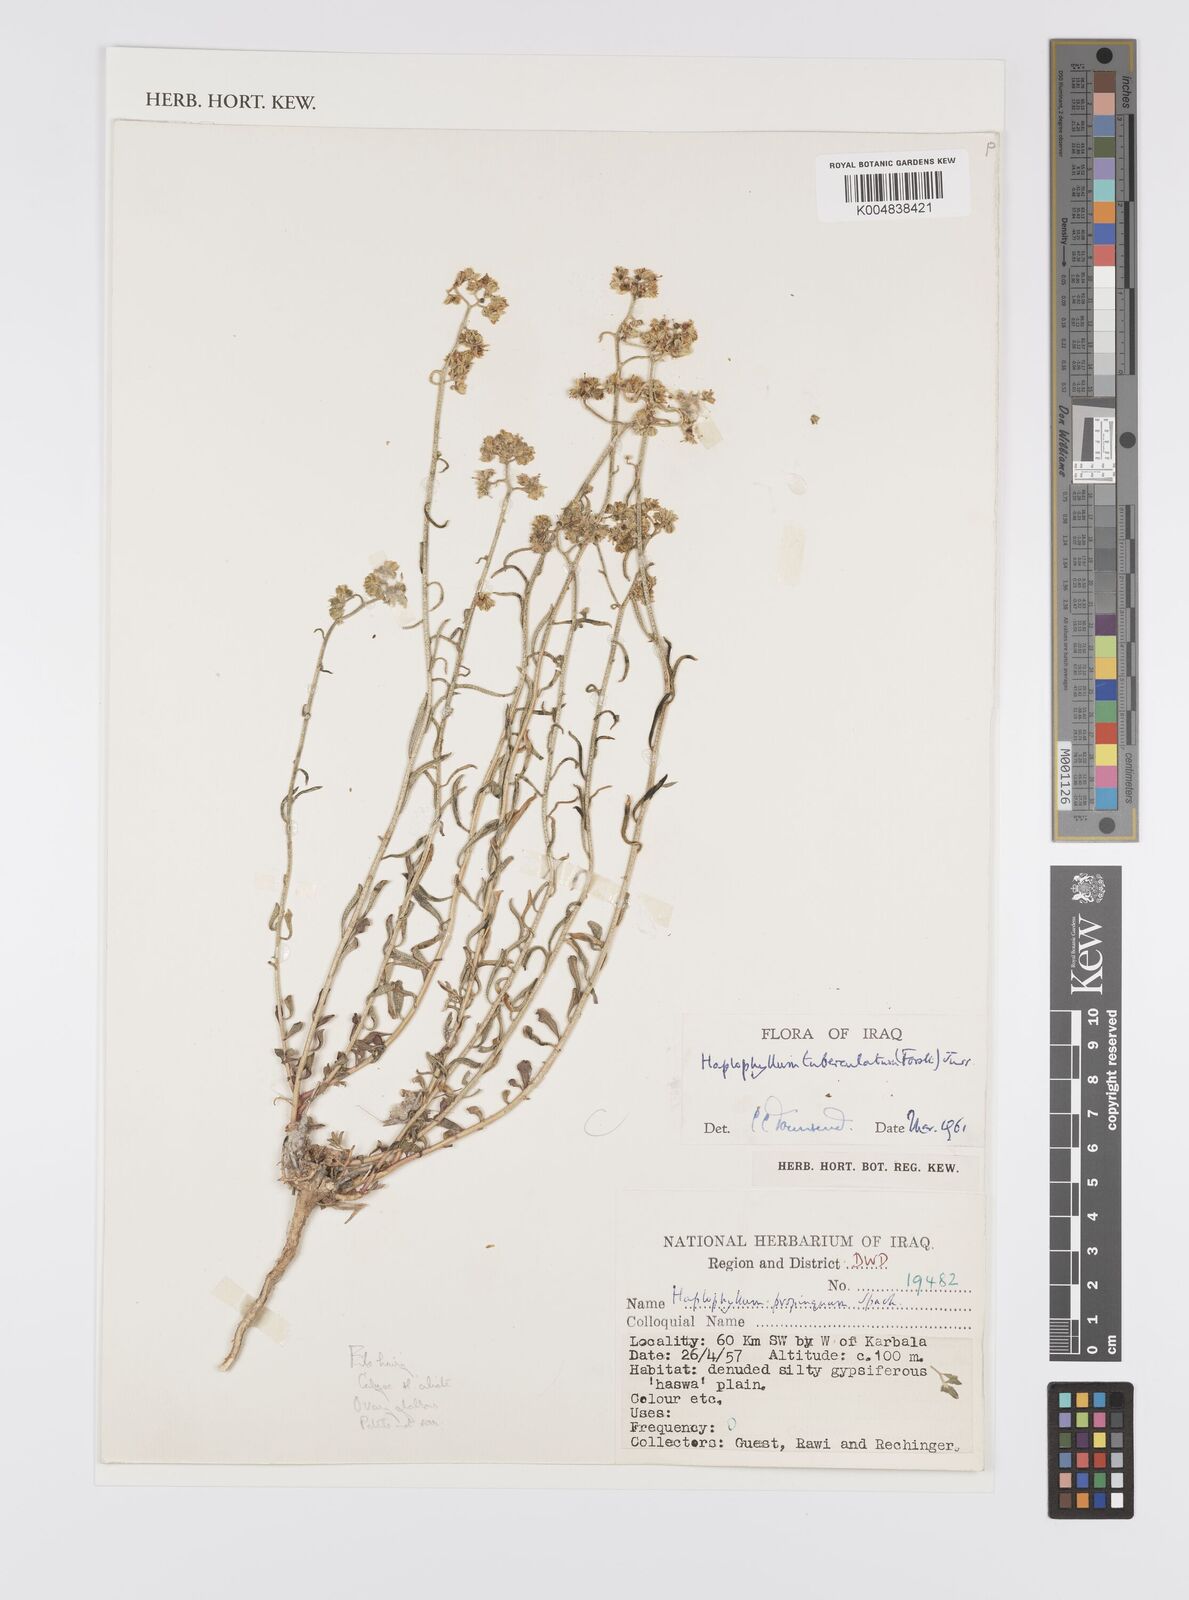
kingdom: Plantae
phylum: Tracheophyta
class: Magnoliopsida
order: Sapindales
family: Rutaceae
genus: Haplophyllum
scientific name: Haplophyllum tuberculatum
